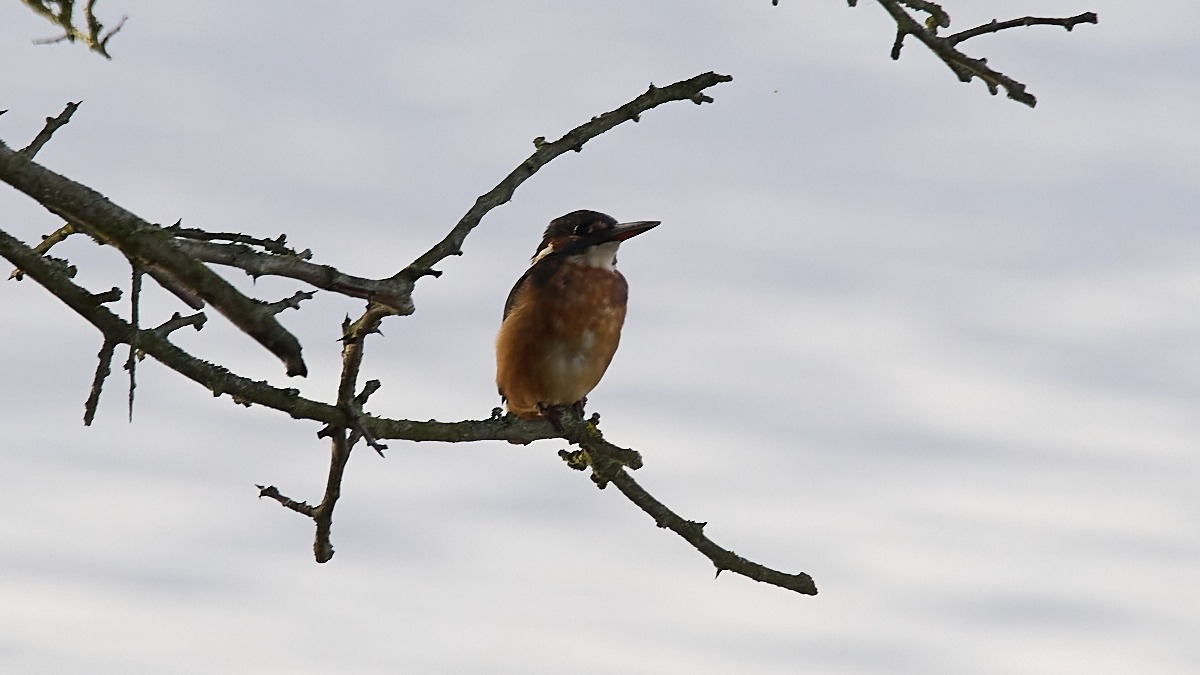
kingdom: Animalia
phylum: Chordata
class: Aves
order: Coraciiformes
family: Alcedinidae
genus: Alcedo
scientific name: Alcedo atthis
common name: Isfugl
